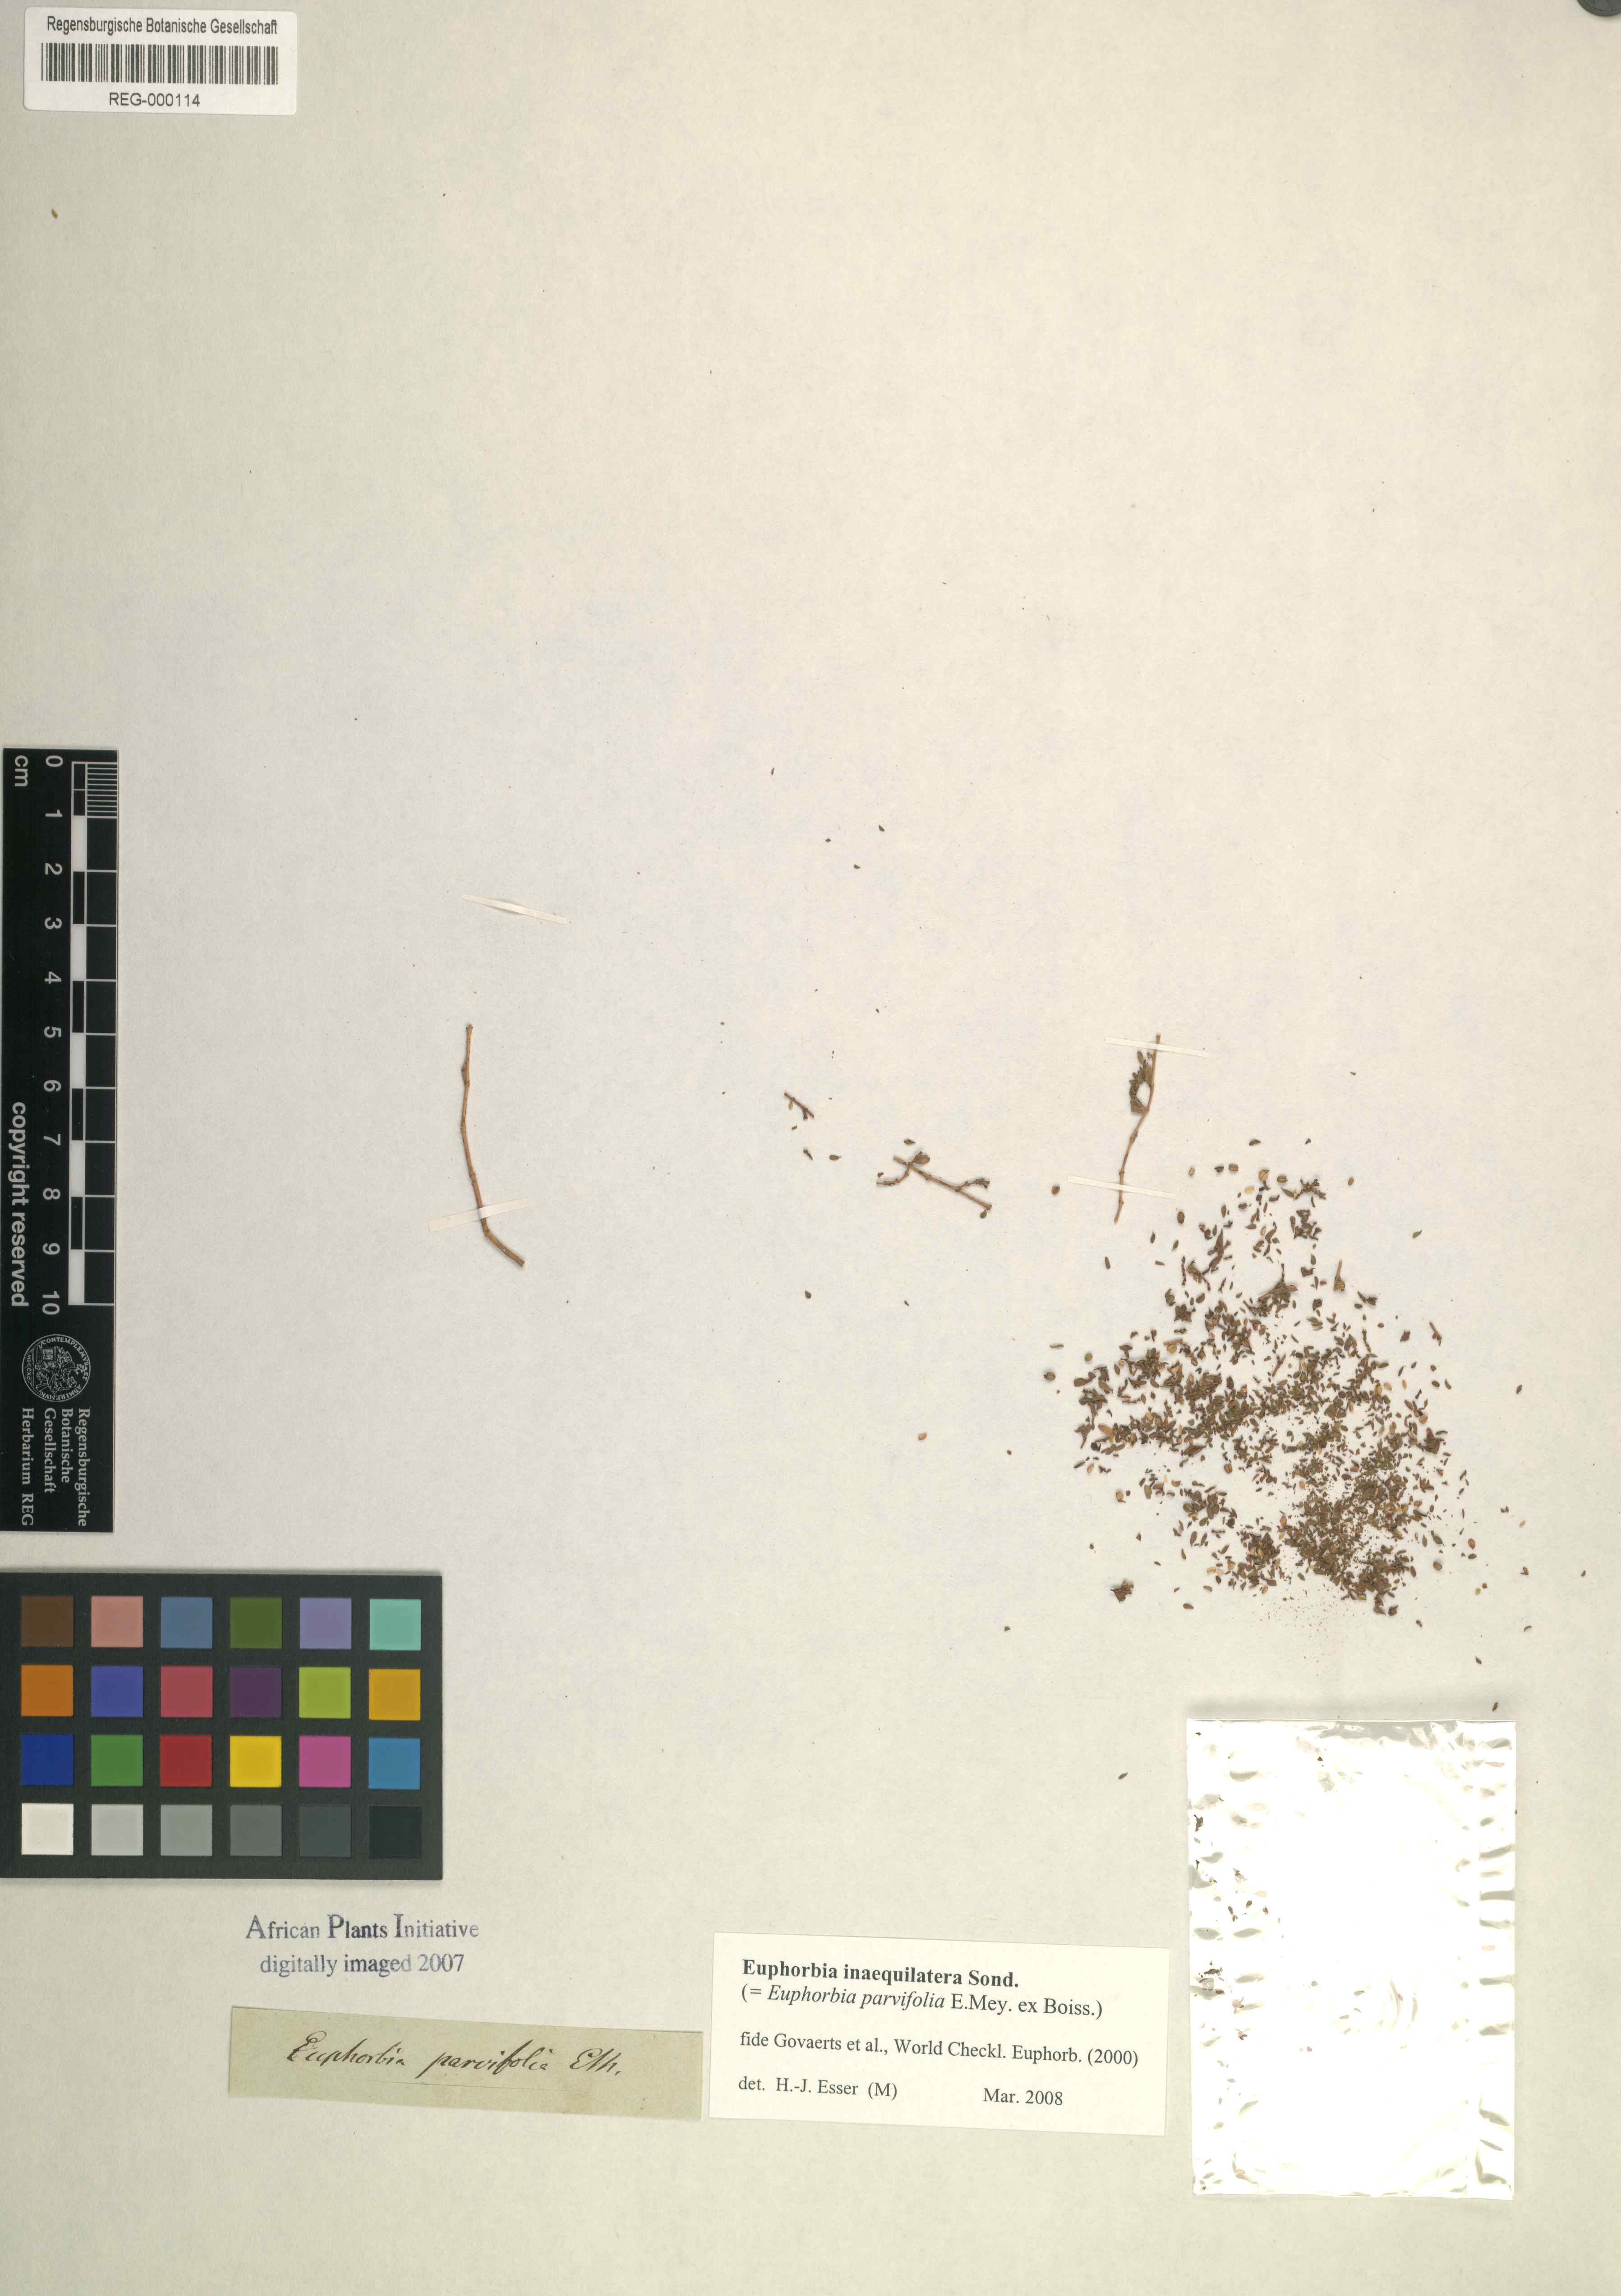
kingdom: Plantae
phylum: Tracheophyta
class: Magnoliopsida
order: Malpighiales
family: Euphorbiaceae
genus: Euphorbia
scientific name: Euphorbia inaequilatera
